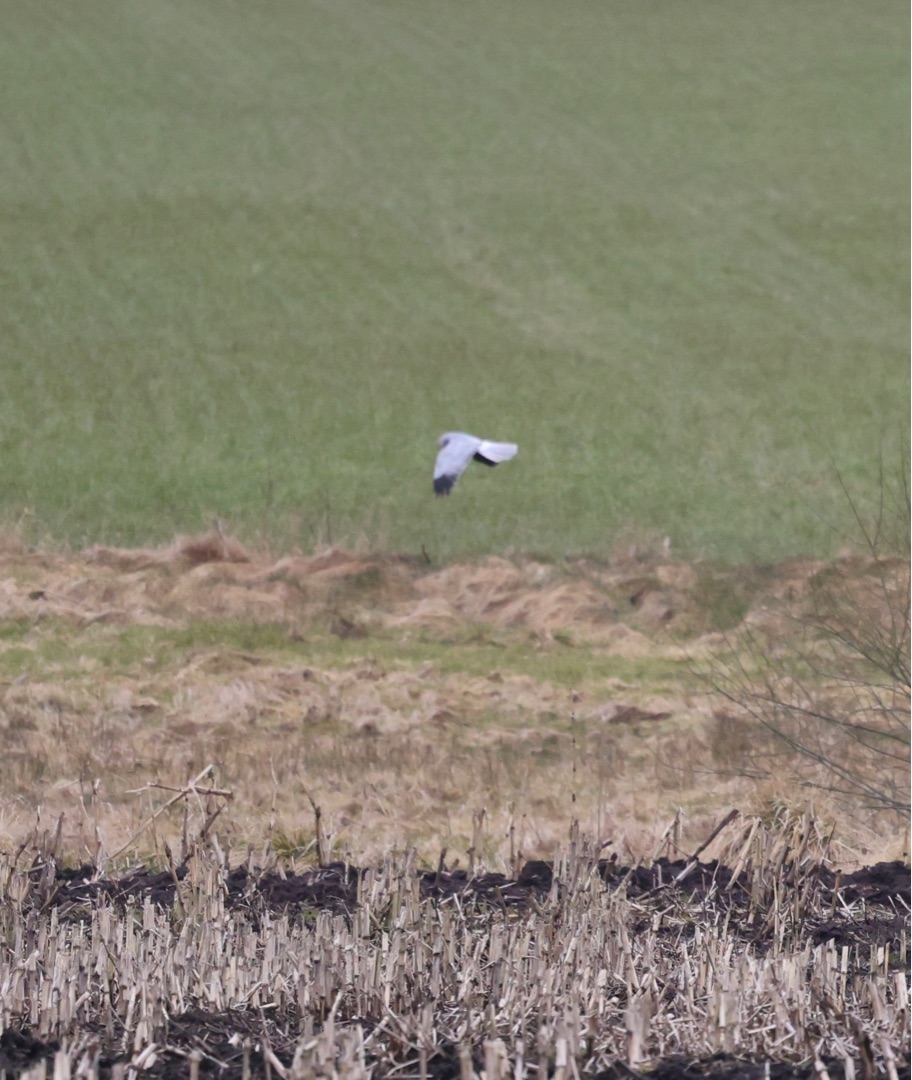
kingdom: Animalia
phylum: Chordata
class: Aves
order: Accipitriformes
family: Accipitridae
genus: Circus
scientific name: Circus cyaneus
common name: Blå kærhøg
